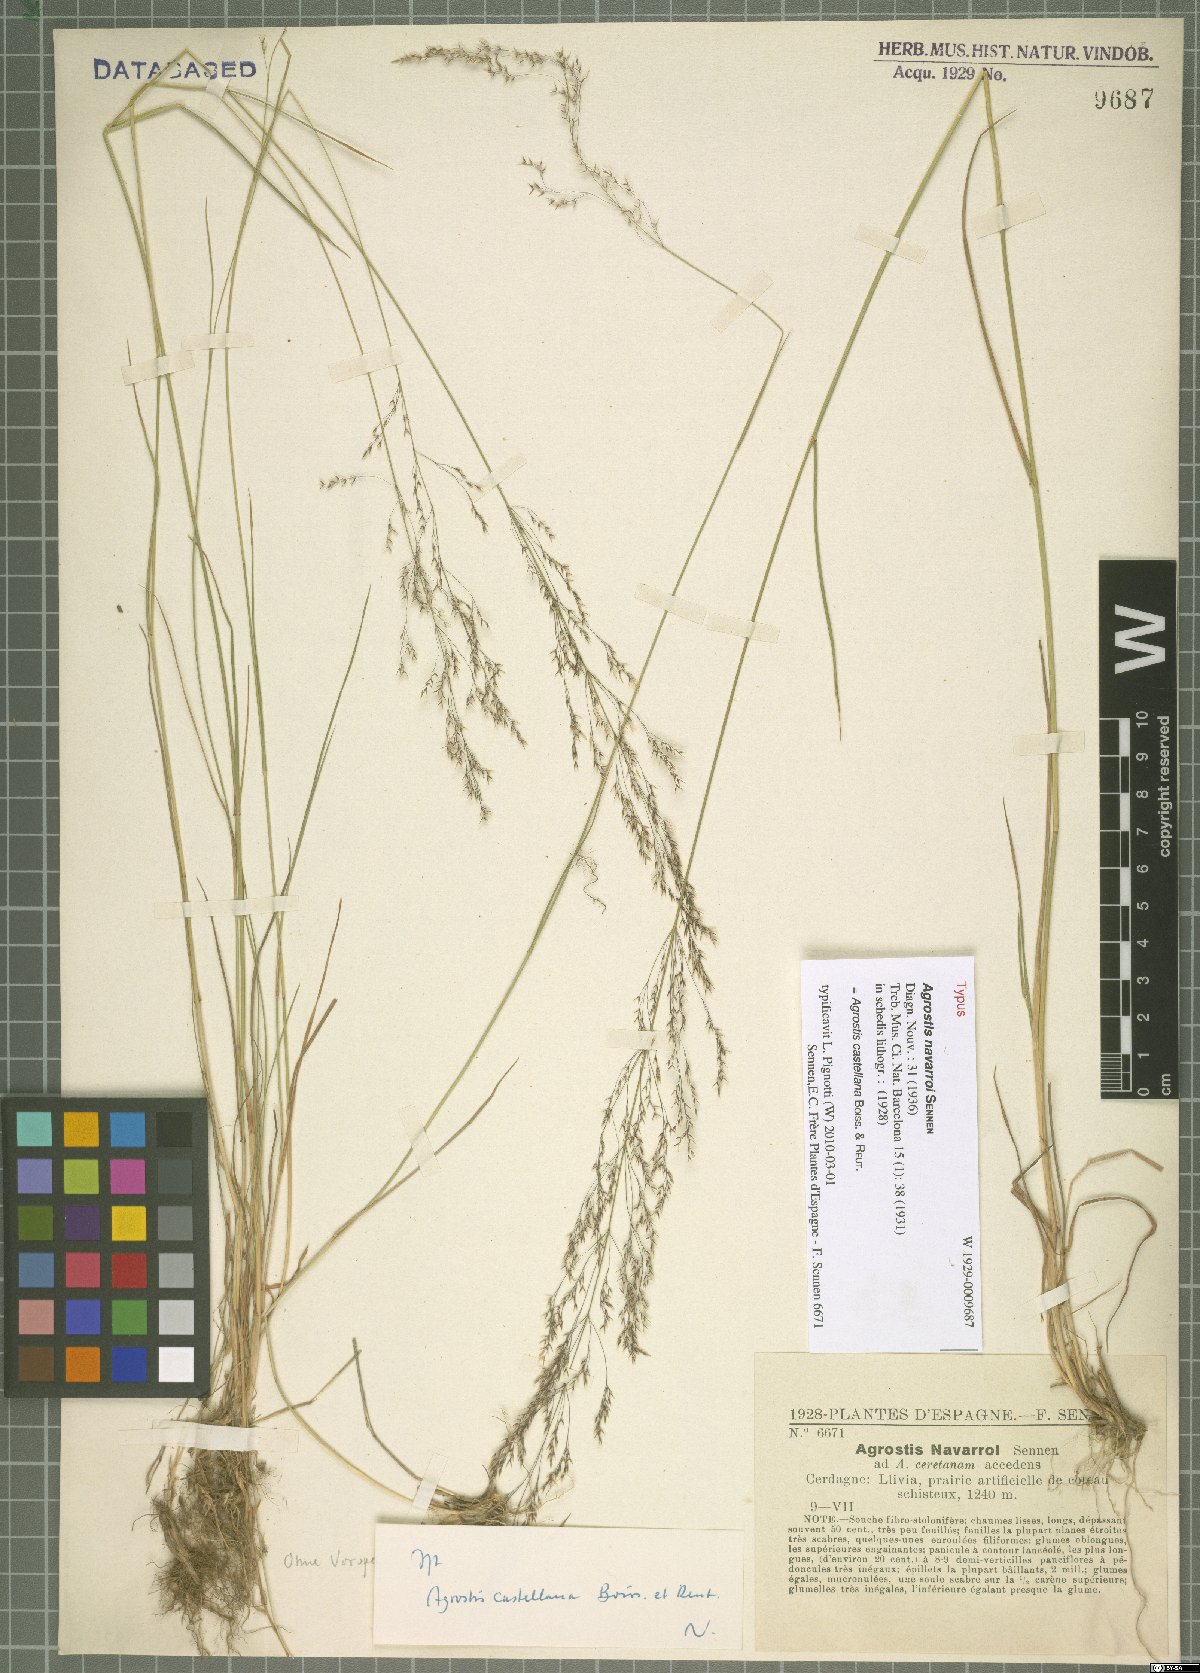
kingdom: Plantae
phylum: Tracheophyta
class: Liliopsida
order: Poales
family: Poaceae
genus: Agrostis
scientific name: Agrostis castellana
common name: Highland bent
